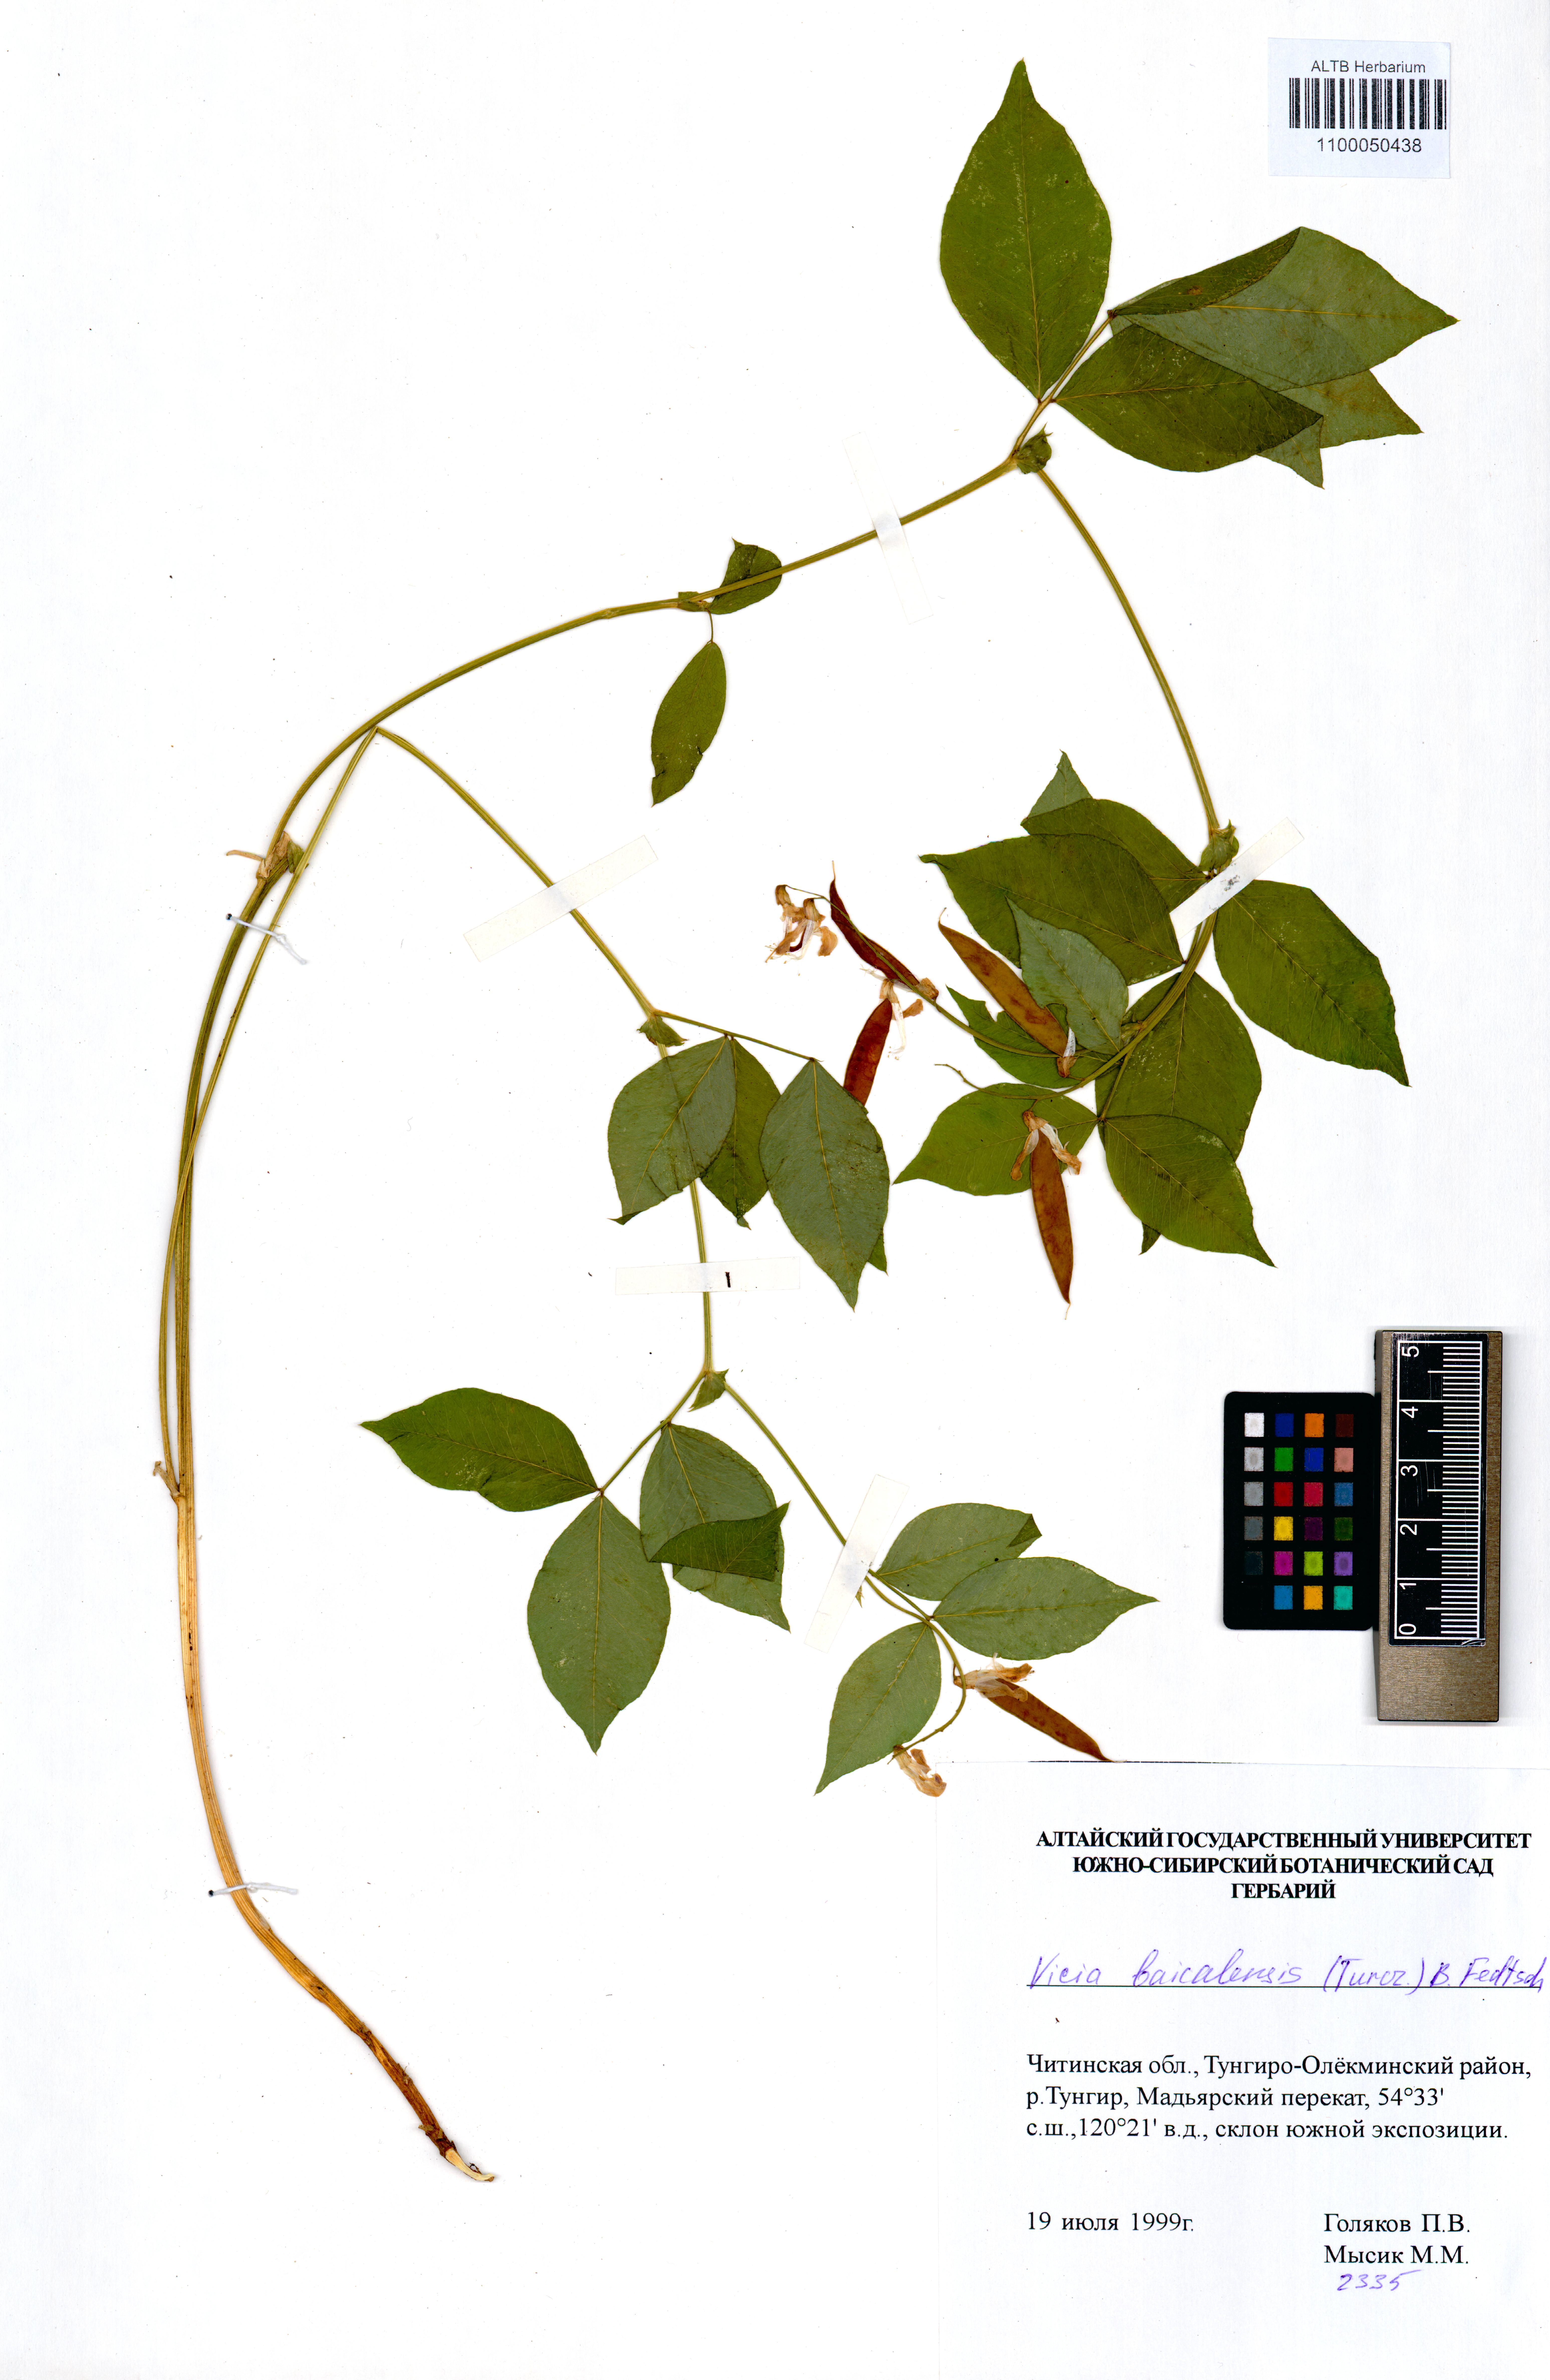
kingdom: Plantae
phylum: Tracheophyta
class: Magnoliopsida
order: Fabales
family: Fabaceae
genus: Vicia
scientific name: Vicia ramuliflora
